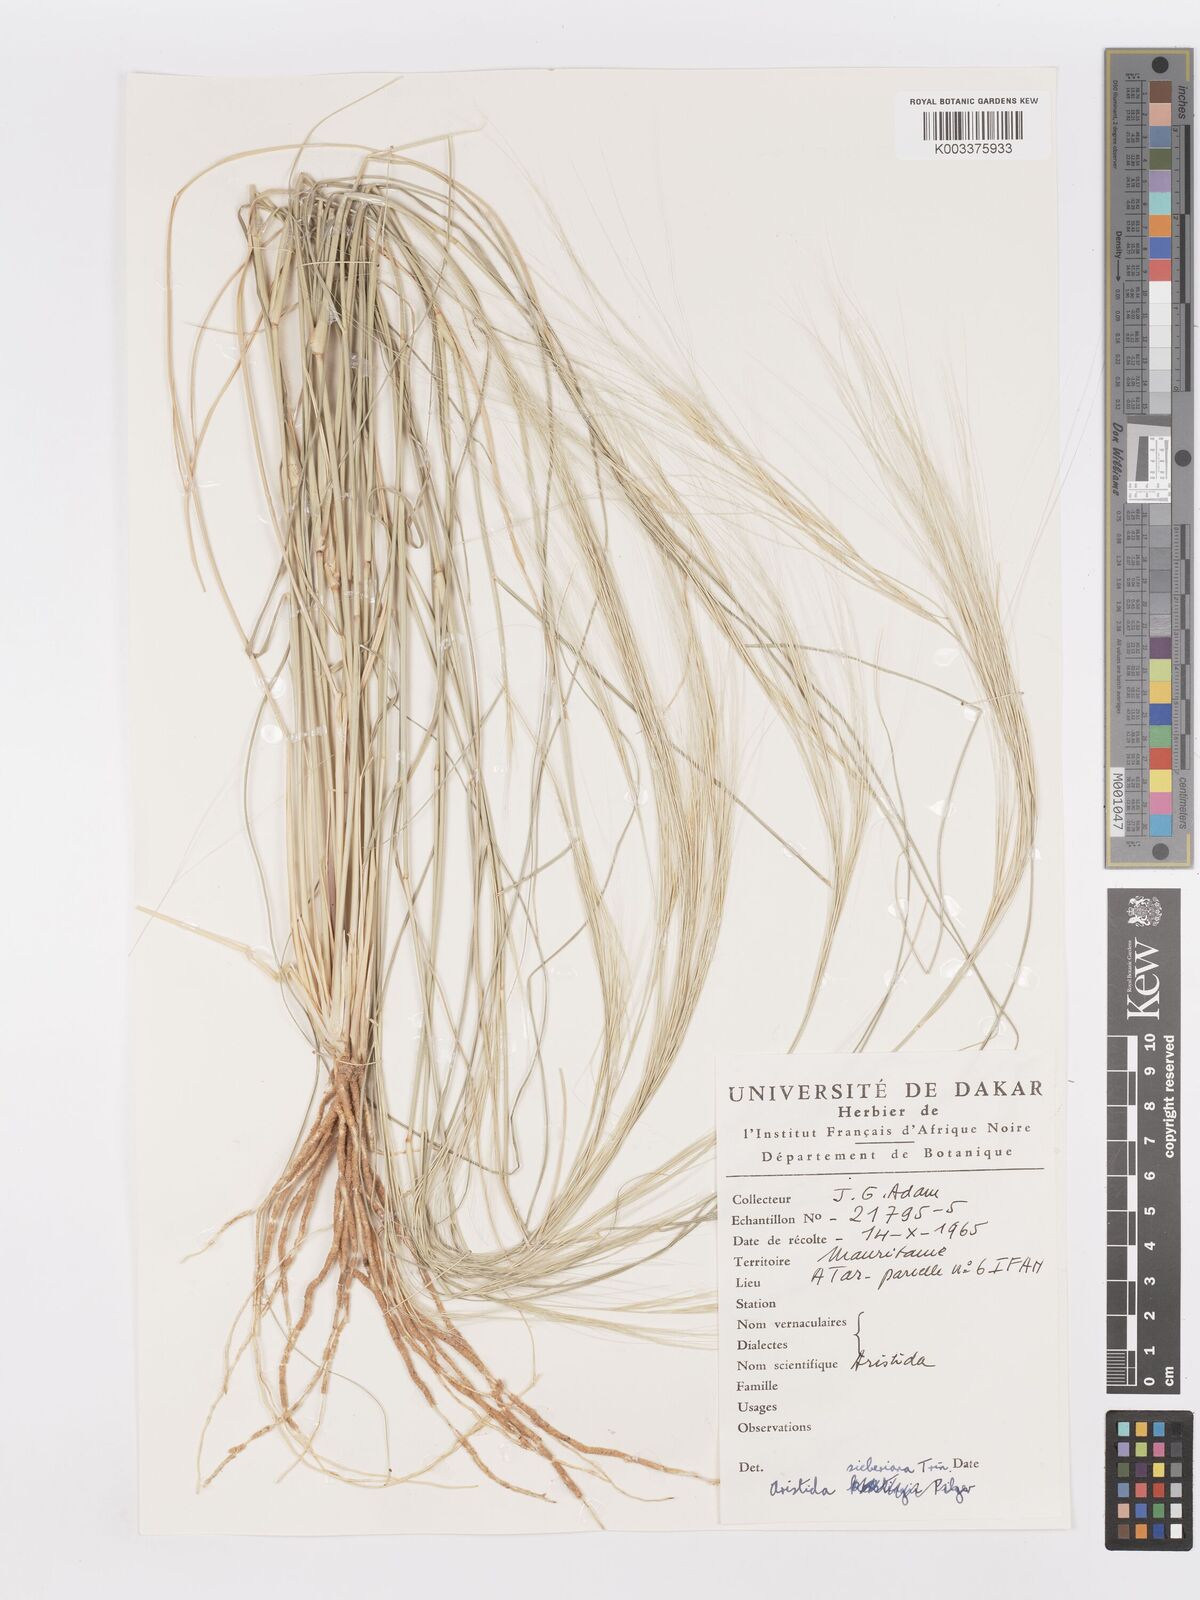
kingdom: Plantae
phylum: Tracheophyta
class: Liliopsida
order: Poales
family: Poaceae
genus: Aristida
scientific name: Aristida sieberiana
